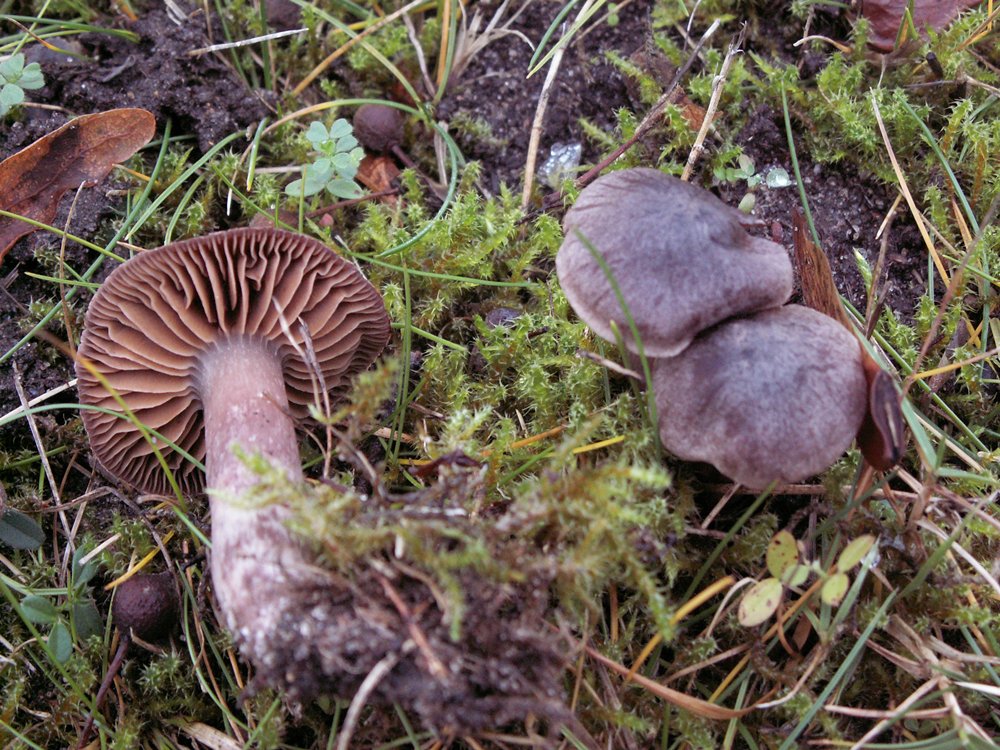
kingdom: Fungi
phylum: Basidiomycota
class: Agaricomycetes
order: Agaricales
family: Cortinariaceae
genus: Cortinarius
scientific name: Cortinarius vernus
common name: sommer-slørhat
